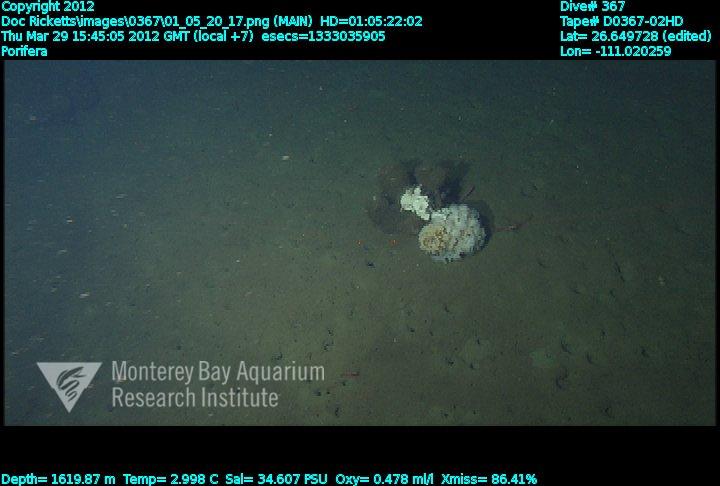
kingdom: Animalia
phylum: Porifera
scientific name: Porifera
